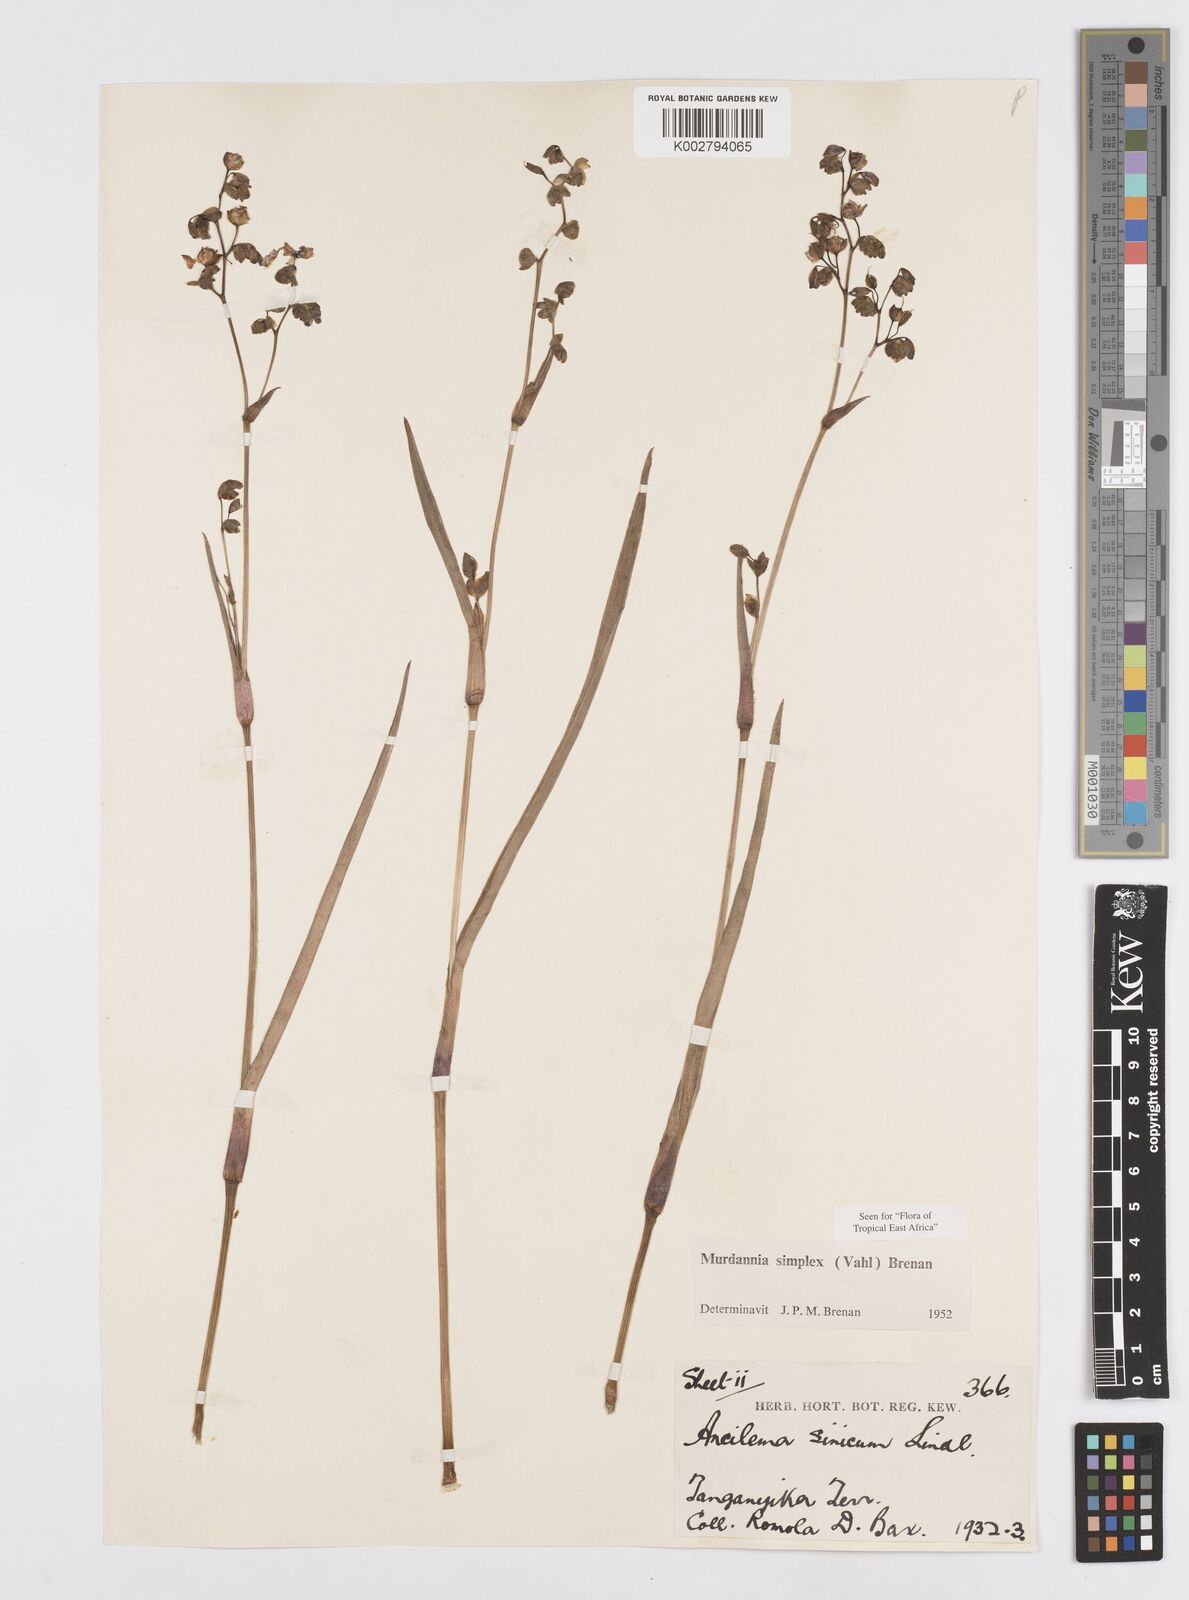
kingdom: Plantae
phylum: Tracheophyta
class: Liliopsida
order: Commelinales
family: Commelinaceae
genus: Murdannia
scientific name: Murdannia simplex
